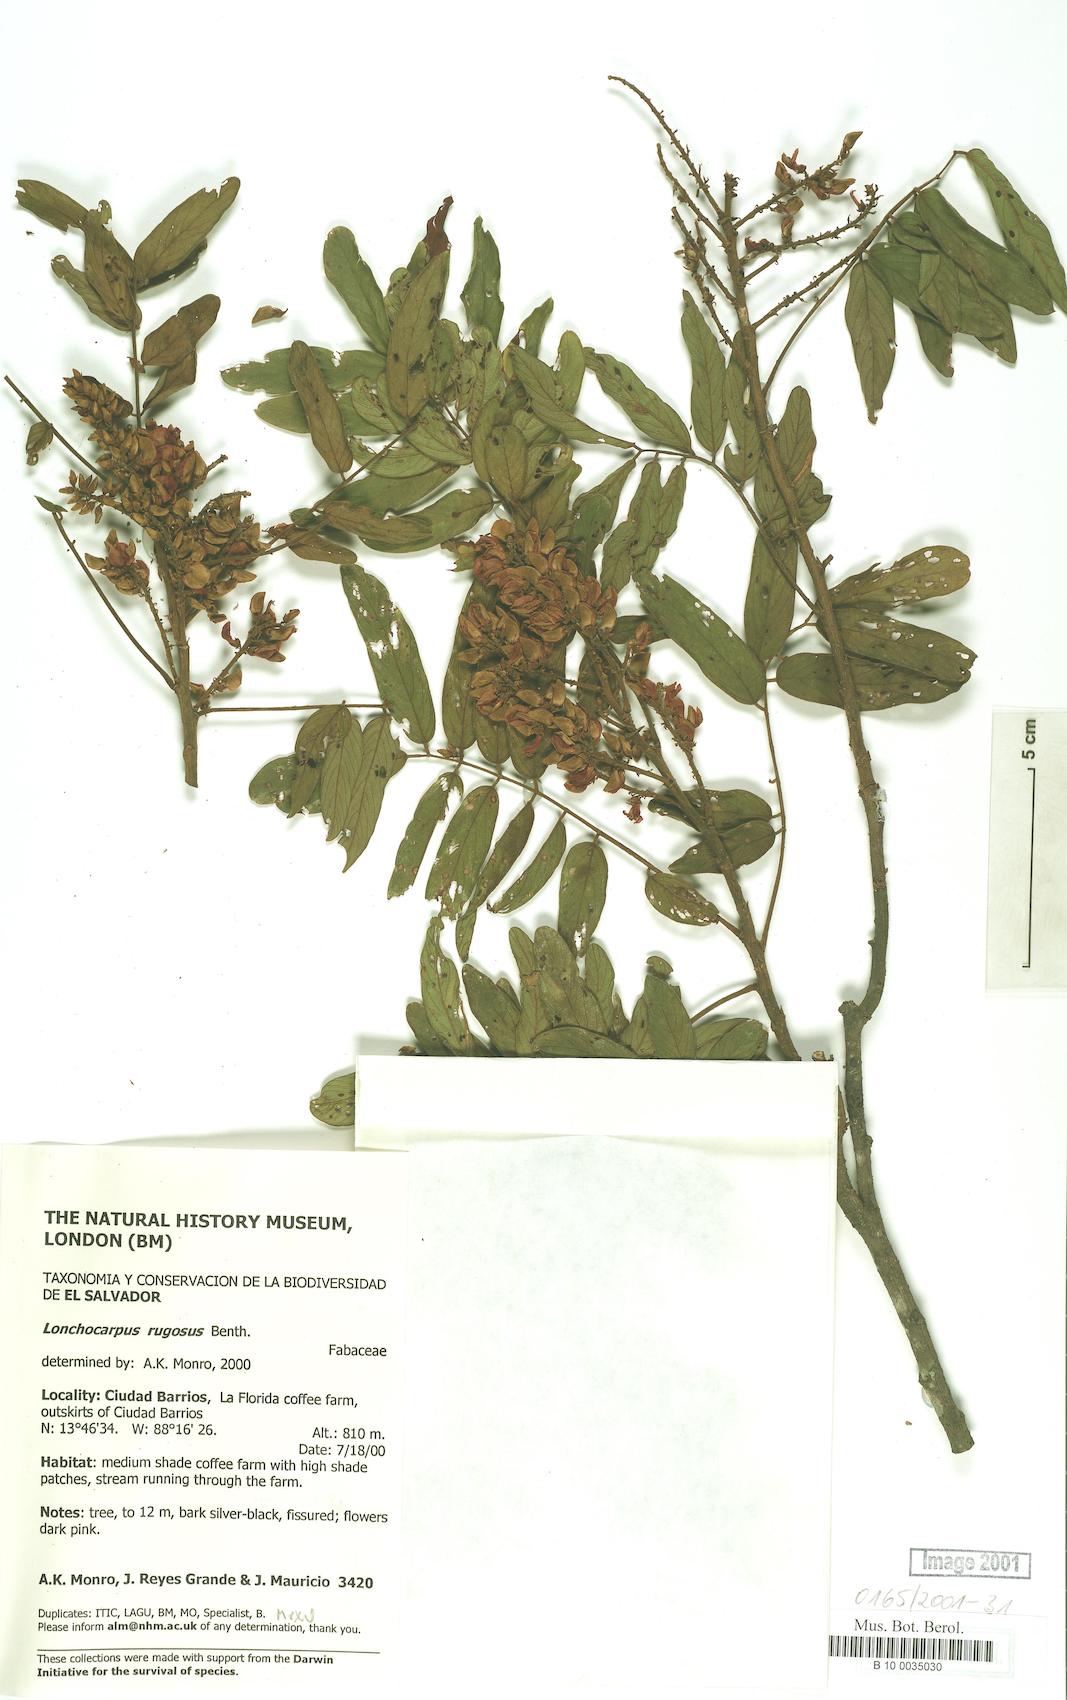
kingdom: Plantae
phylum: Tracheophyta
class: Magnoliopsida
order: Fabales
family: Fabaceae
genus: Lonchocarpus
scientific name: Lonchocarpus rugosus
